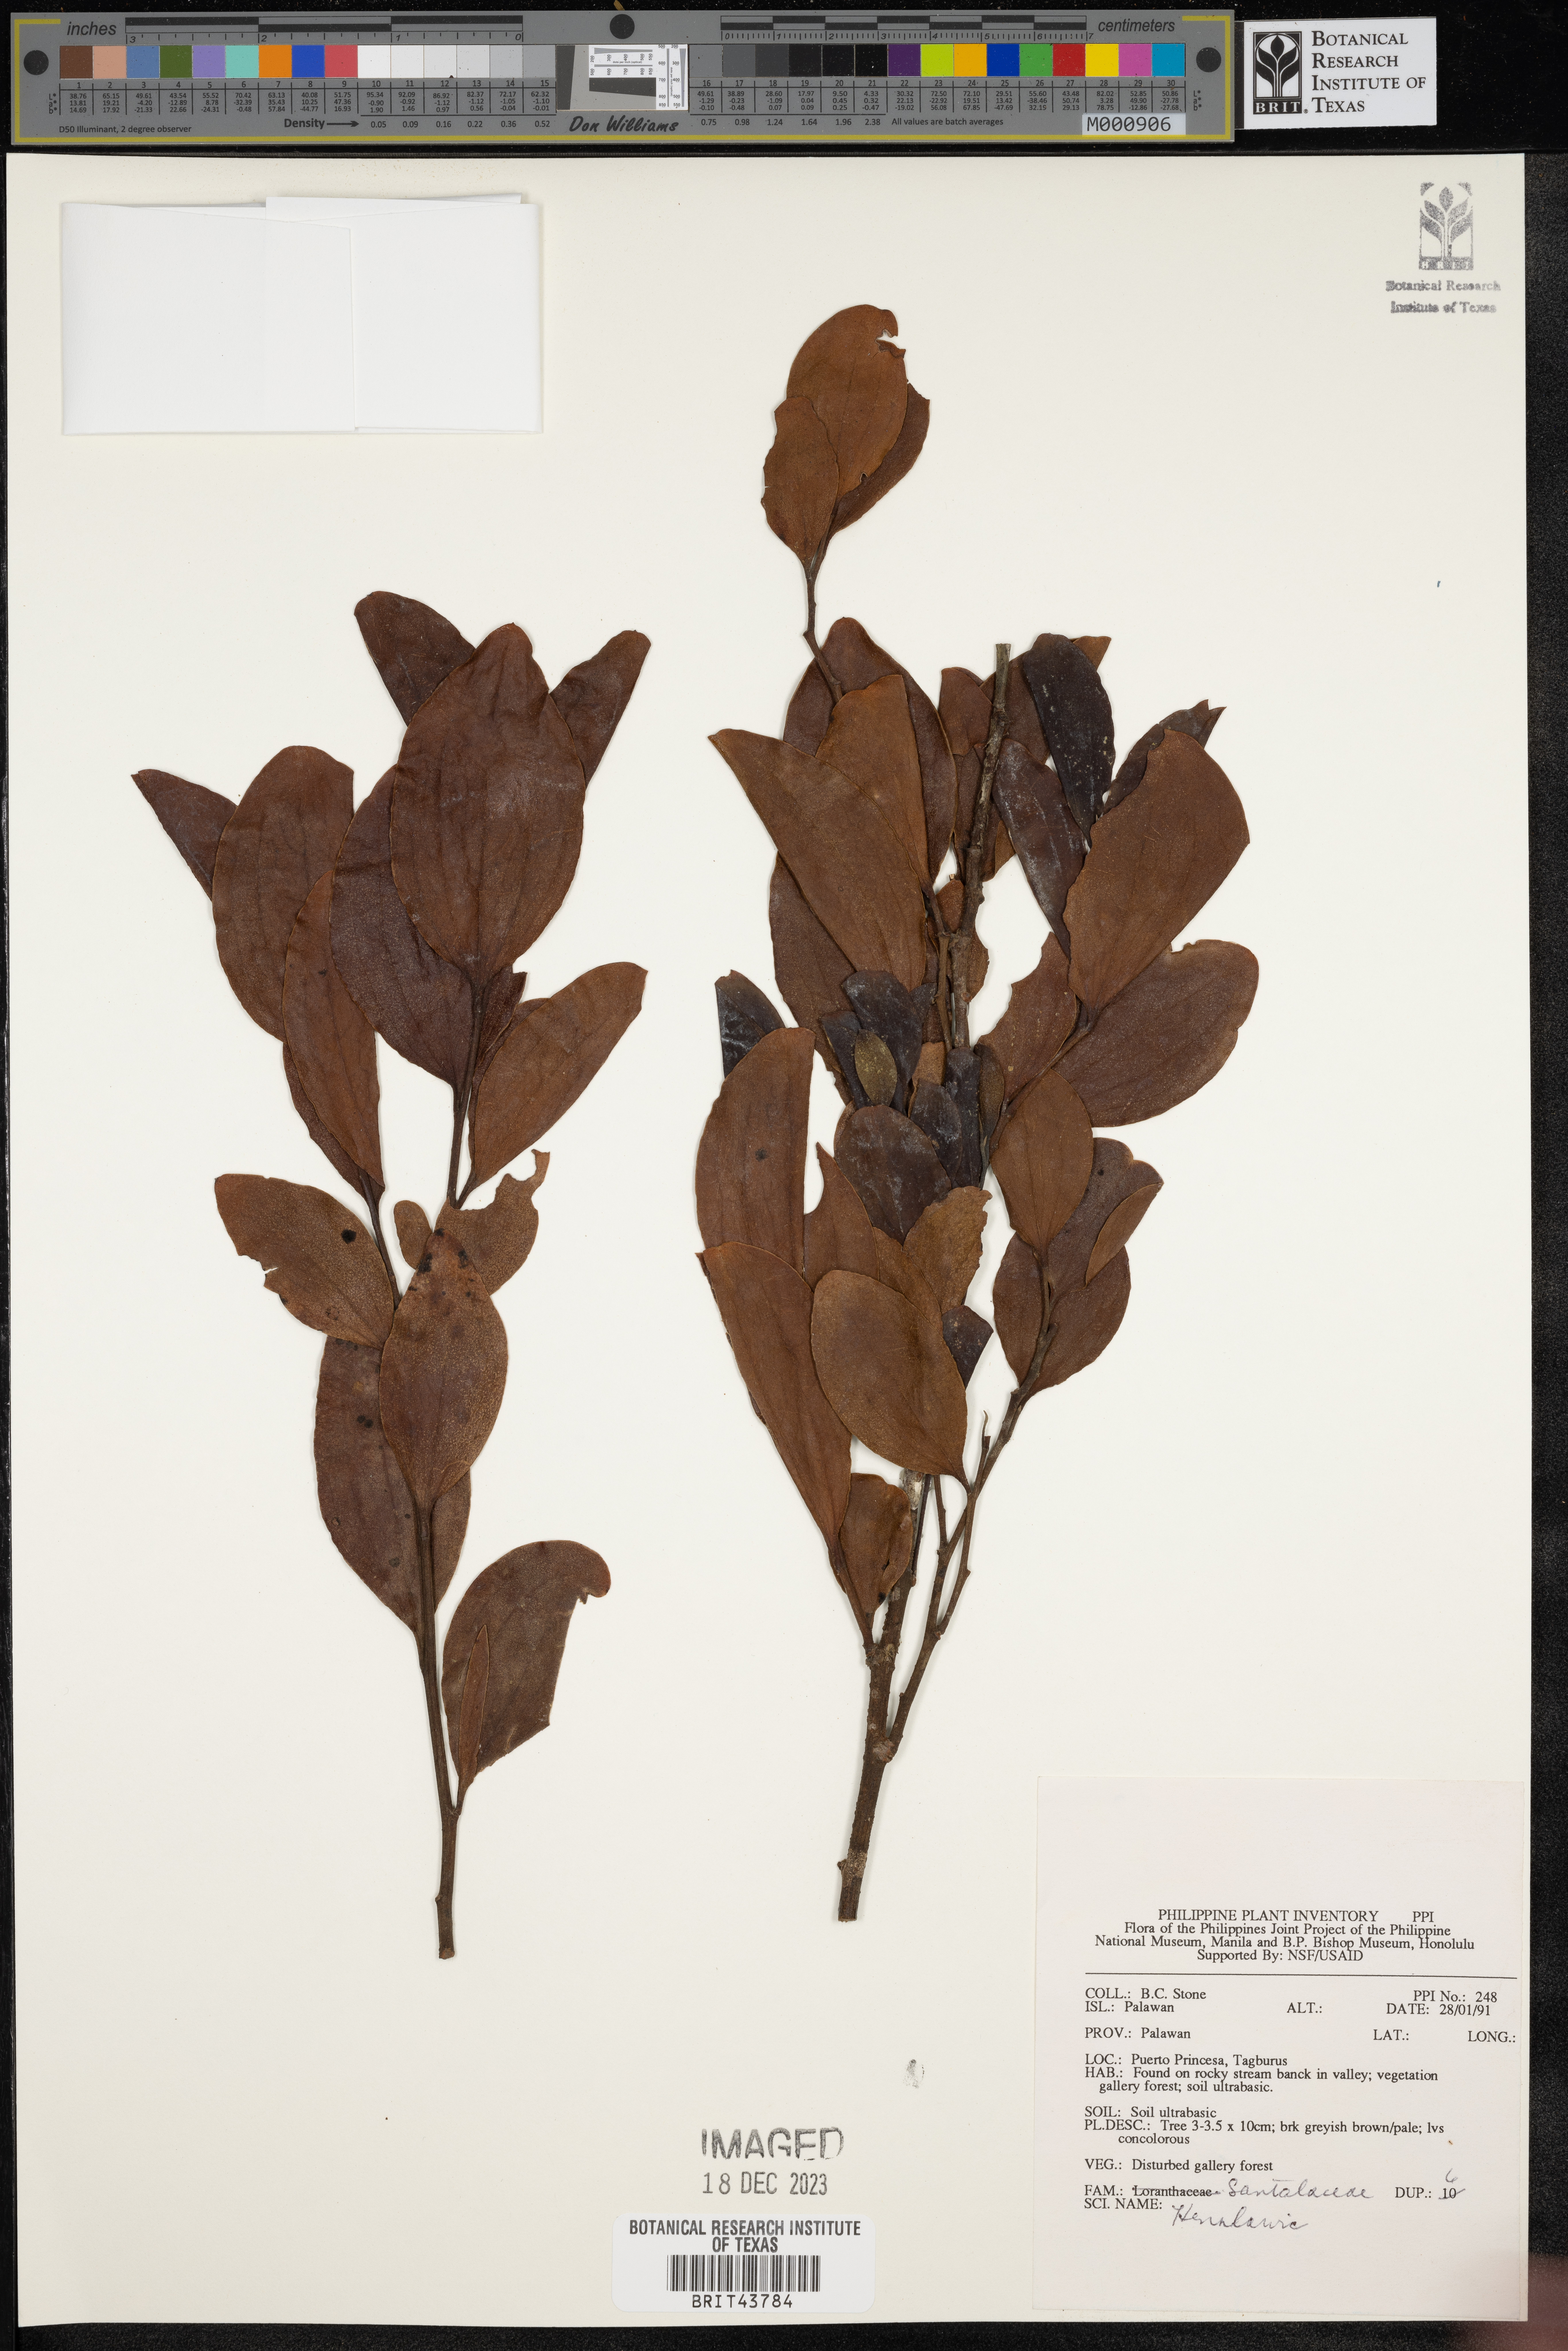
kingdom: Plantae
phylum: Tracheophyta
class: Magnoliopsida
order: Santalales
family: Santalaceae
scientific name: Santalaceae
